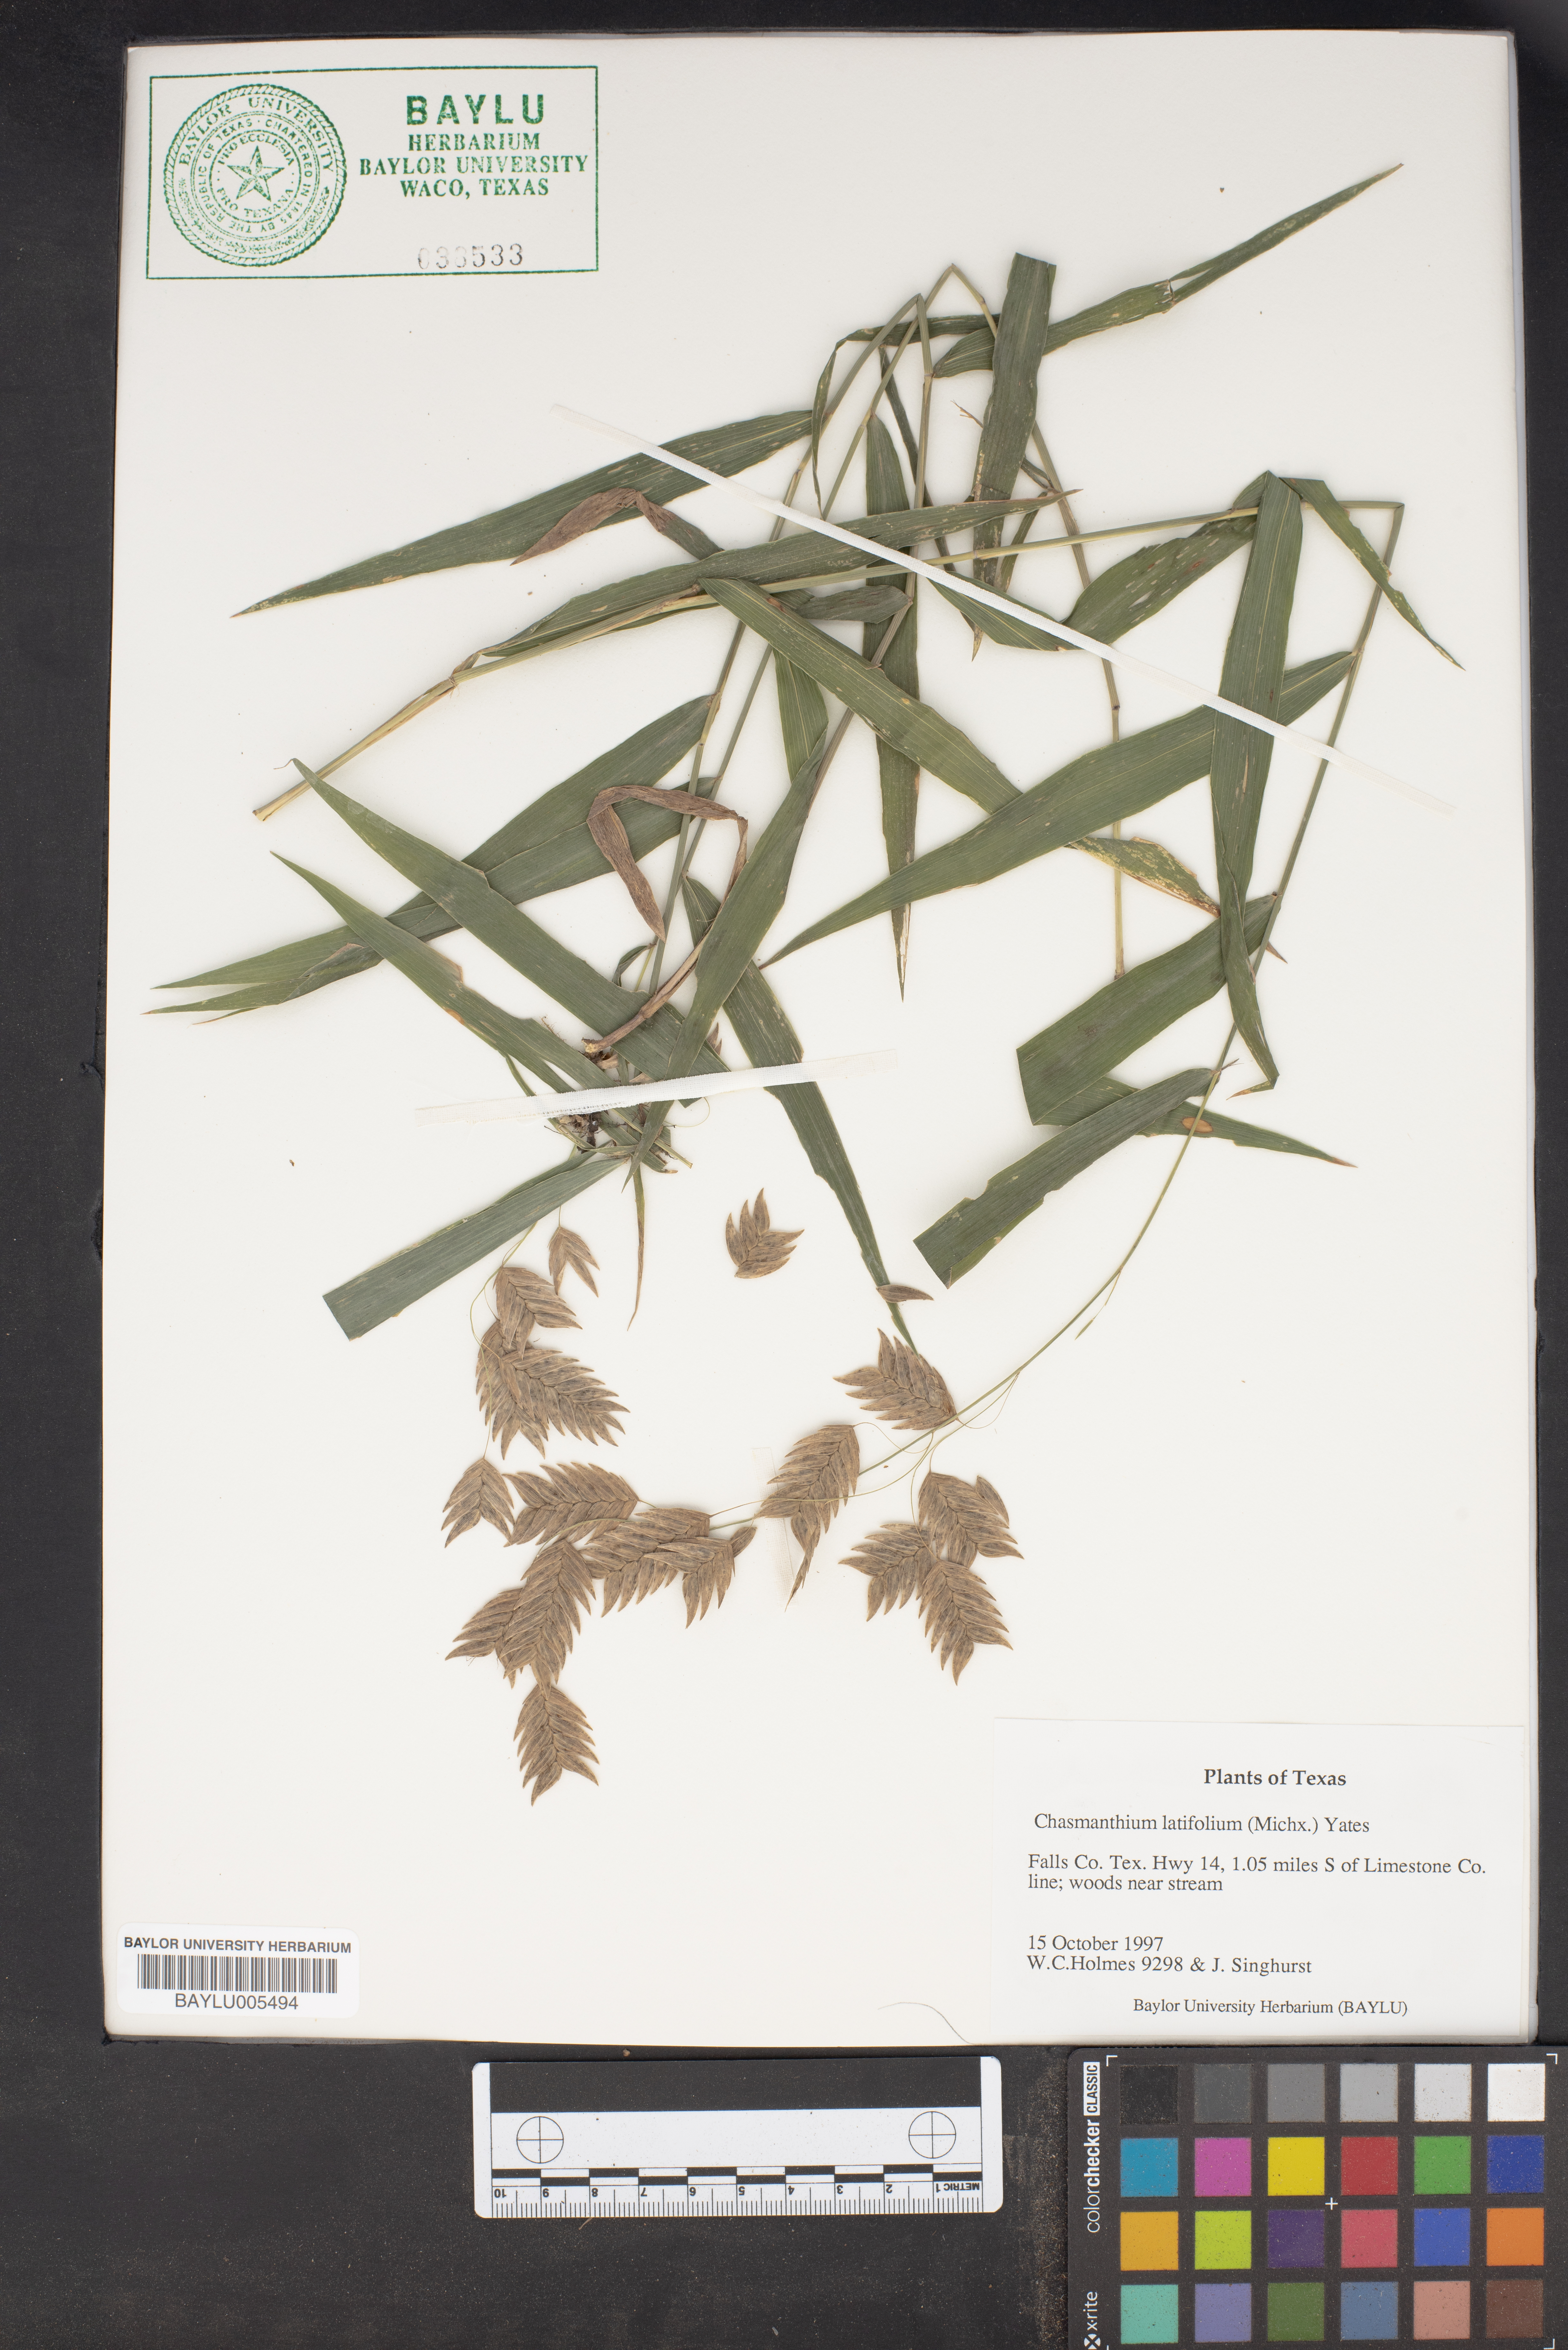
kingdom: Plantae
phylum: Tracheophyta
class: Liliopsida
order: Poales
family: Poaceae
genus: Chasmanthium
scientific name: Chasmanthium latifolium
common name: Broad-leaved chasmanthium
